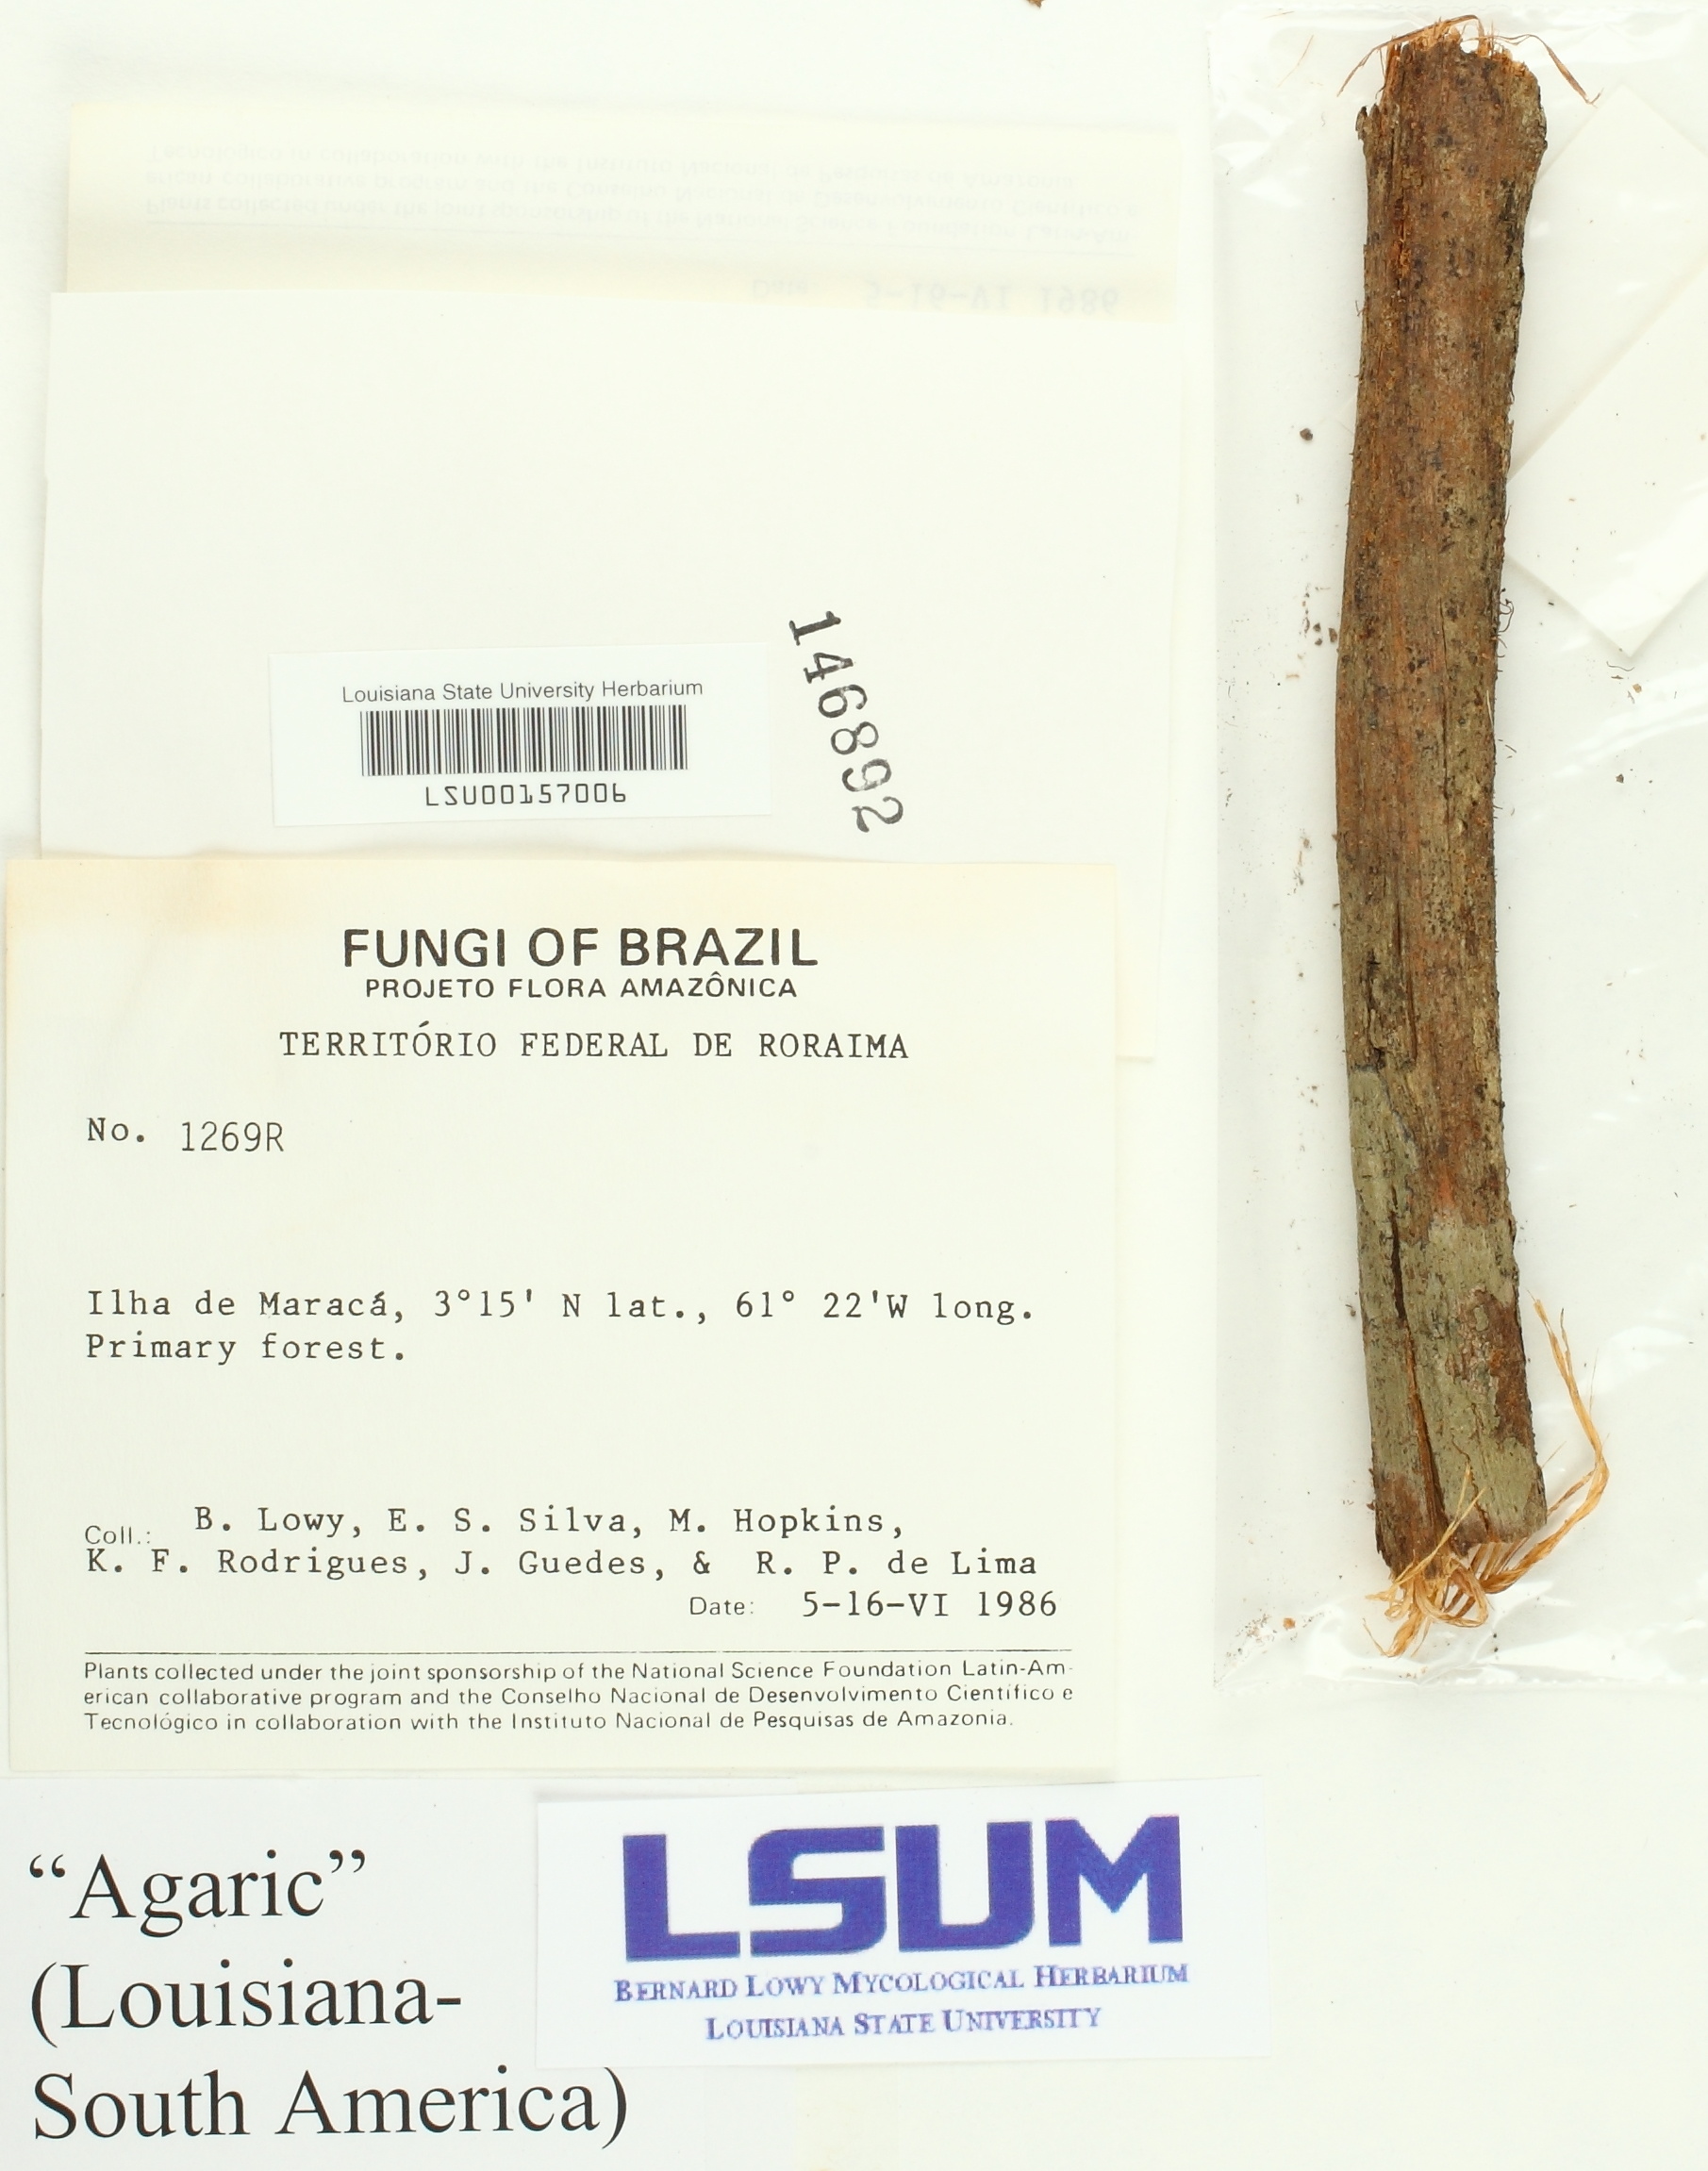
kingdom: Fungi
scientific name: Fungi
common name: Fungi
